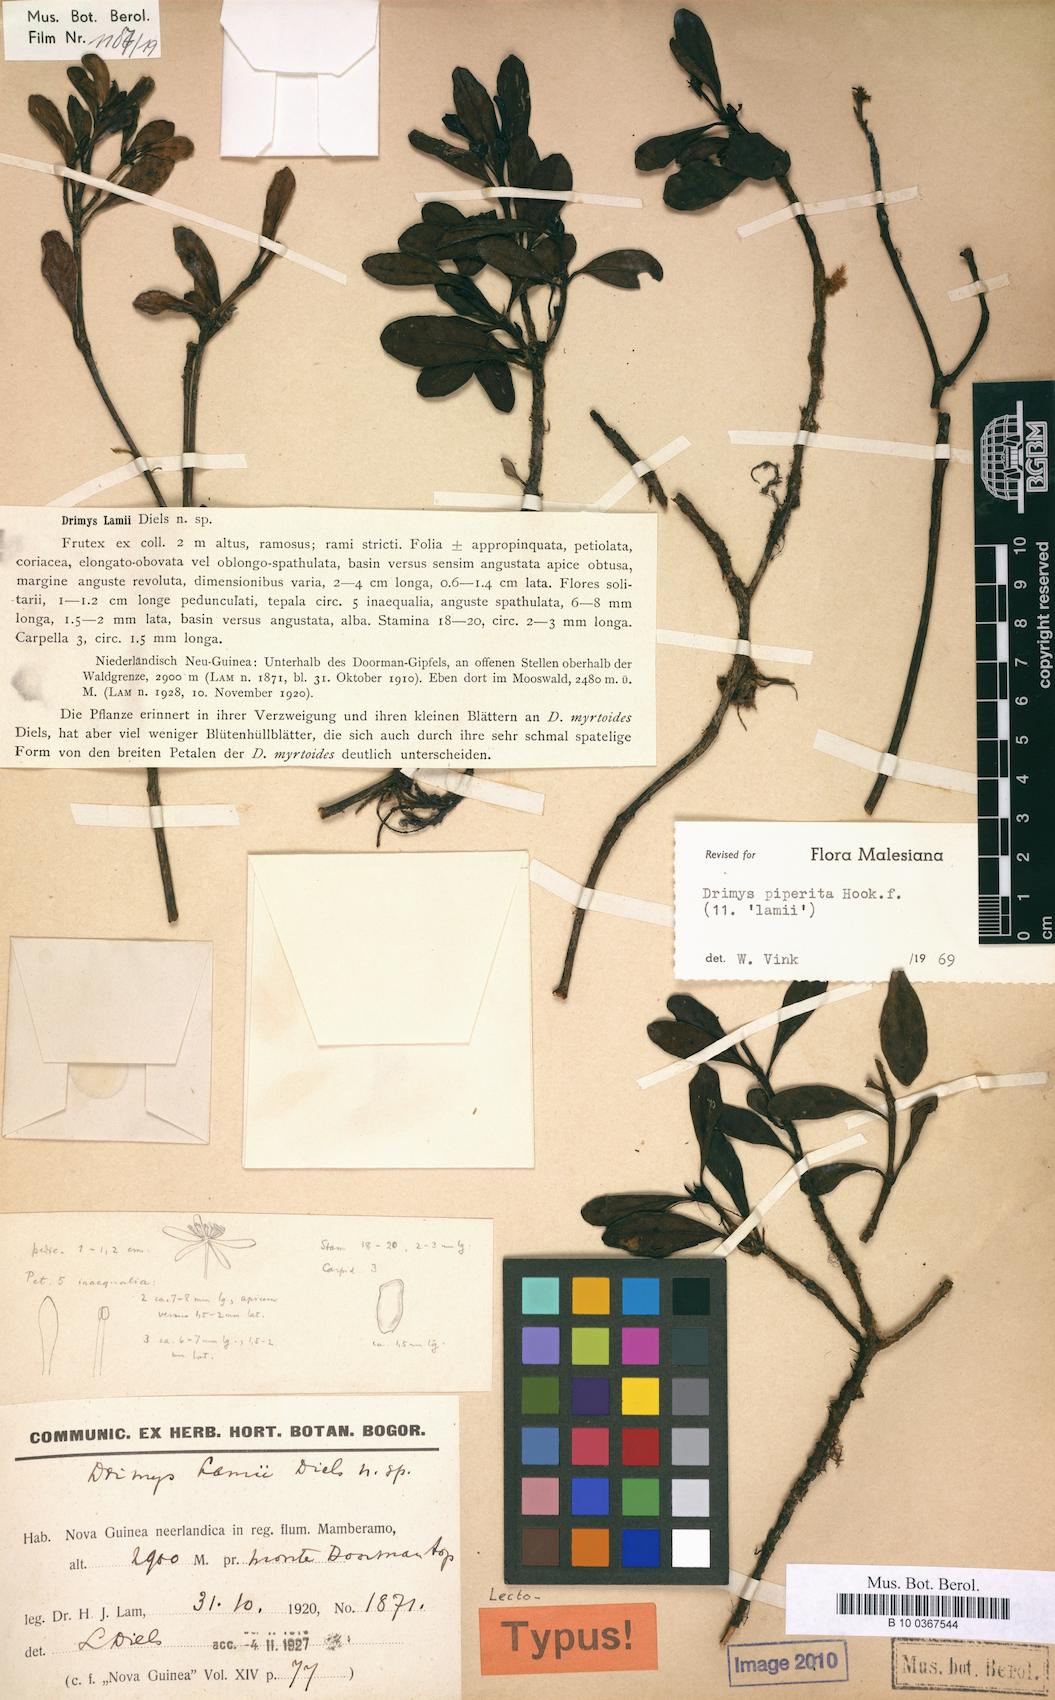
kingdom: Plantae
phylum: Tracheophyta
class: Magnoliopsida
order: Canellales
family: Winteraceae
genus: Drimys
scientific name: Drimys piperita
